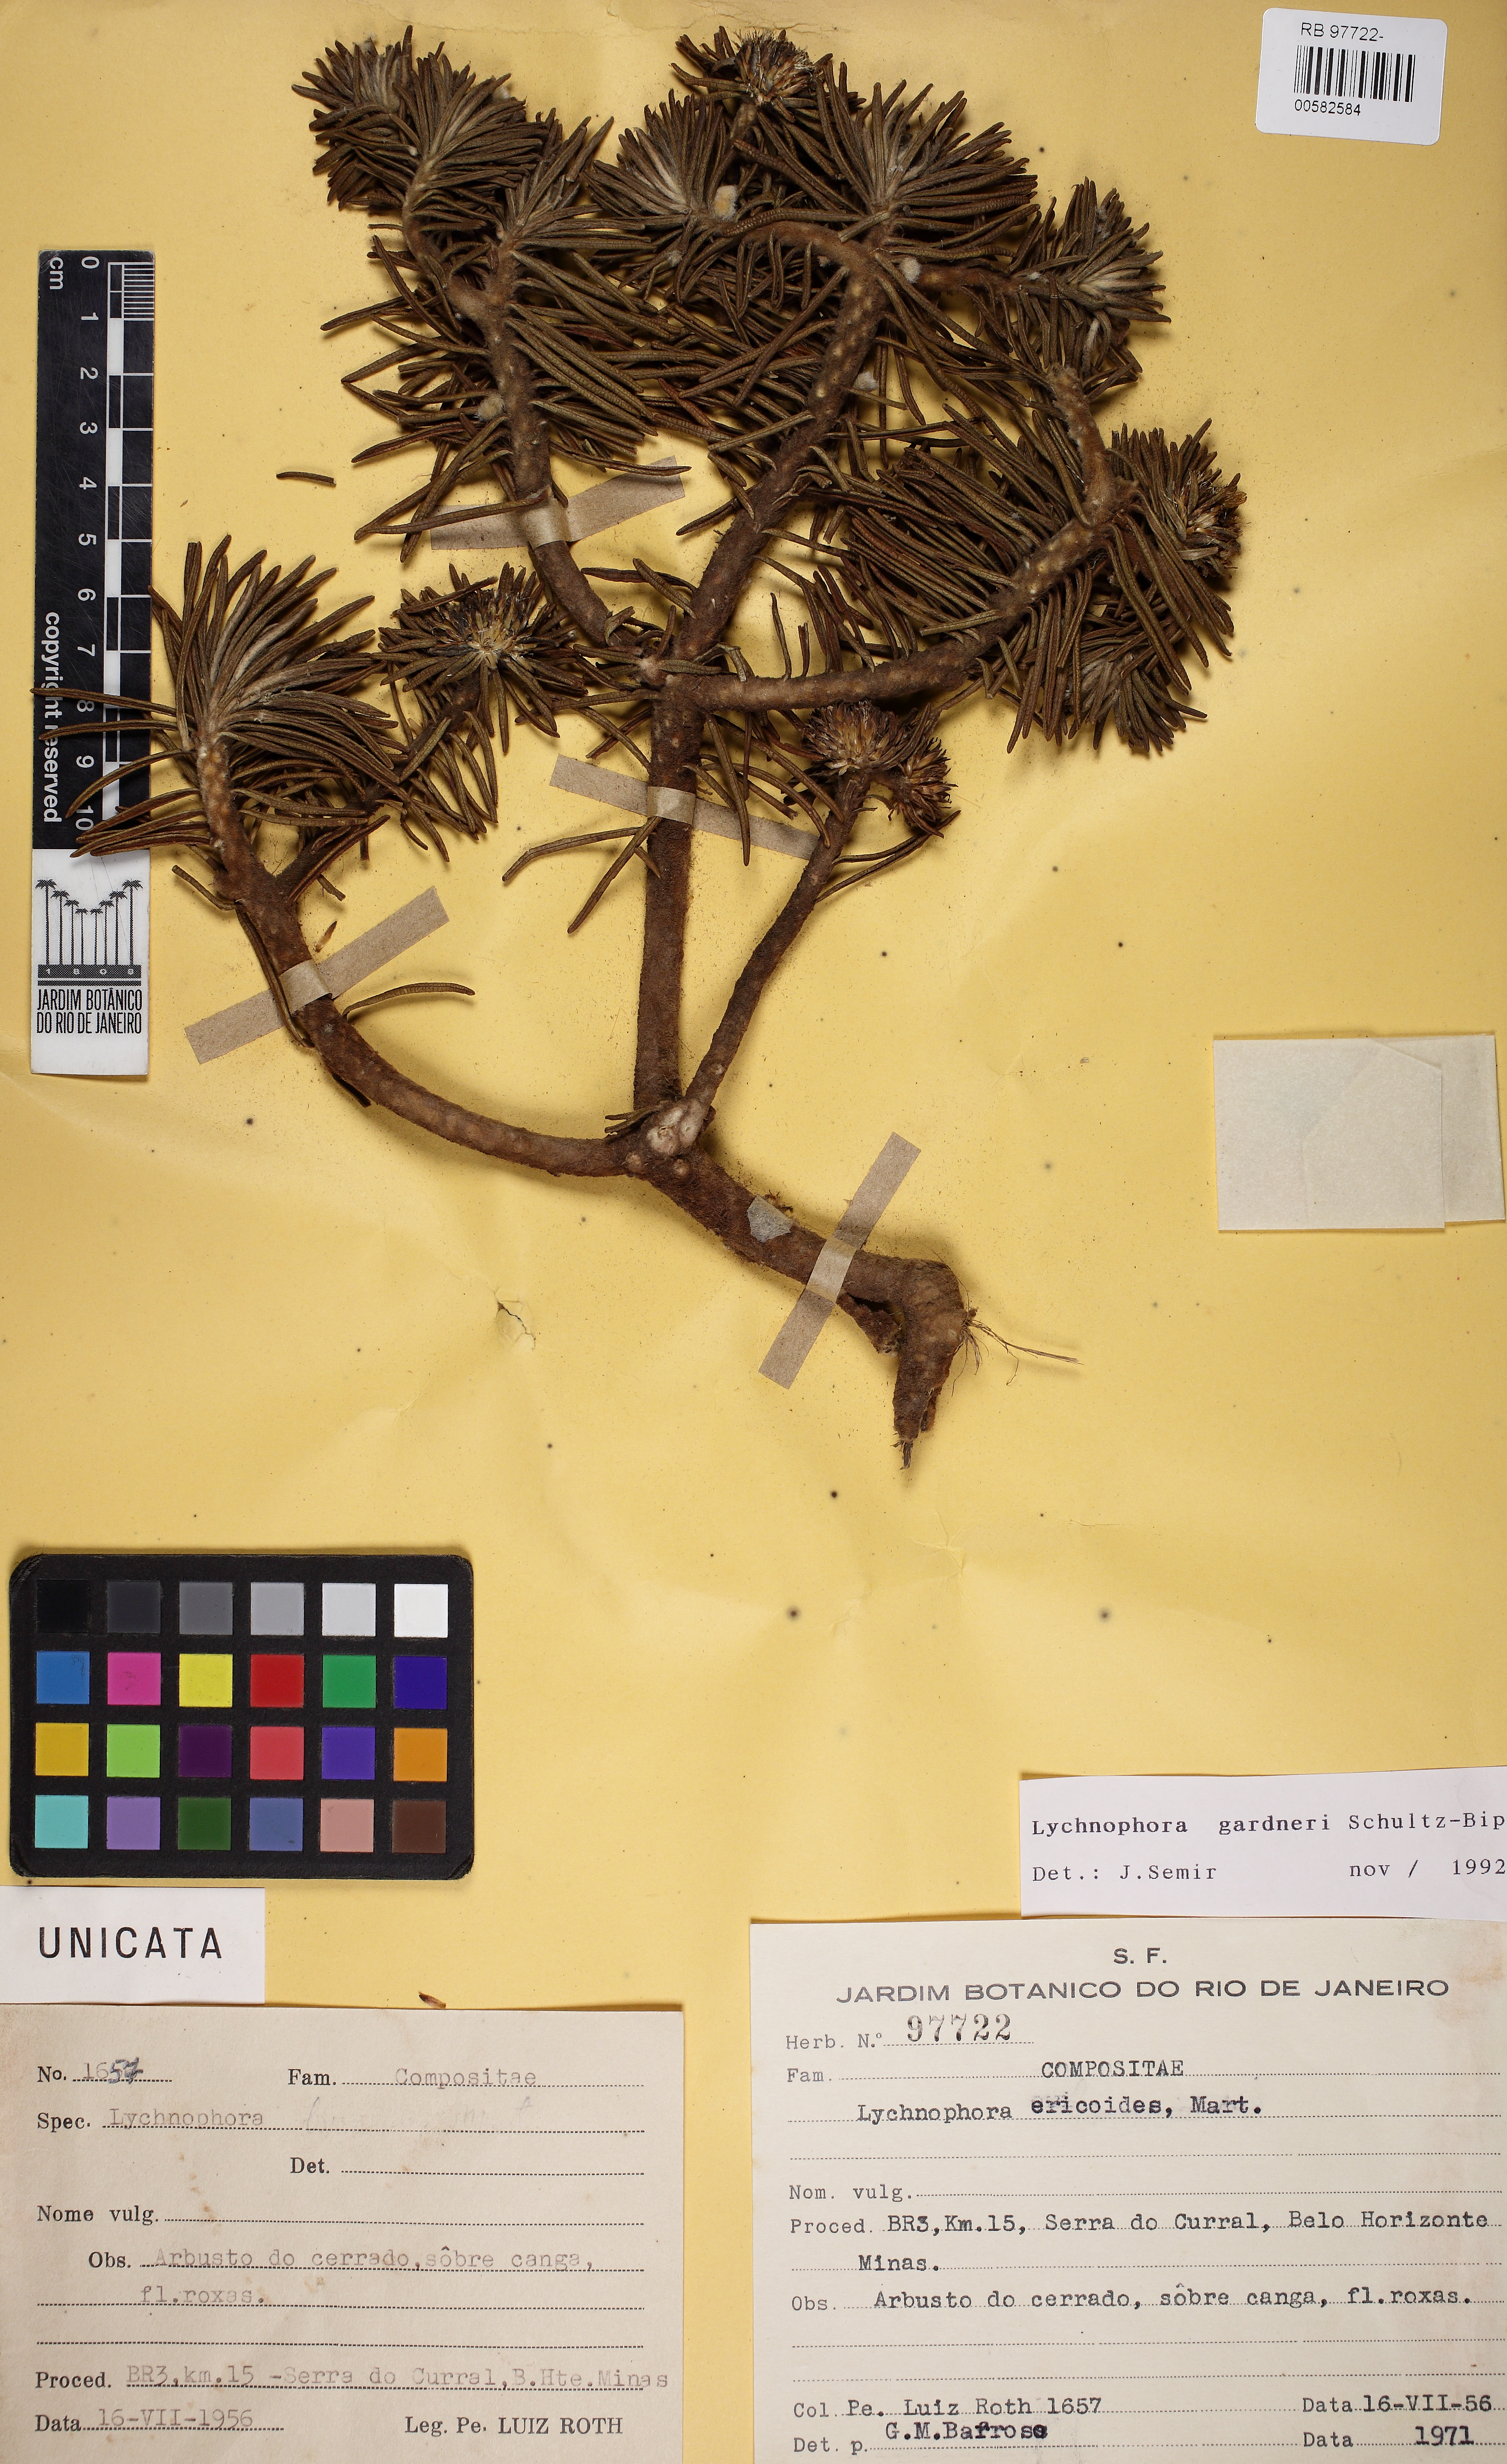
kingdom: Plantae
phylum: Tracheophyta
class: Magnoliopsida
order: Asterales
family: Asteraceae
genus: Lychnophora
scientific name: Lychnophora gardneri
